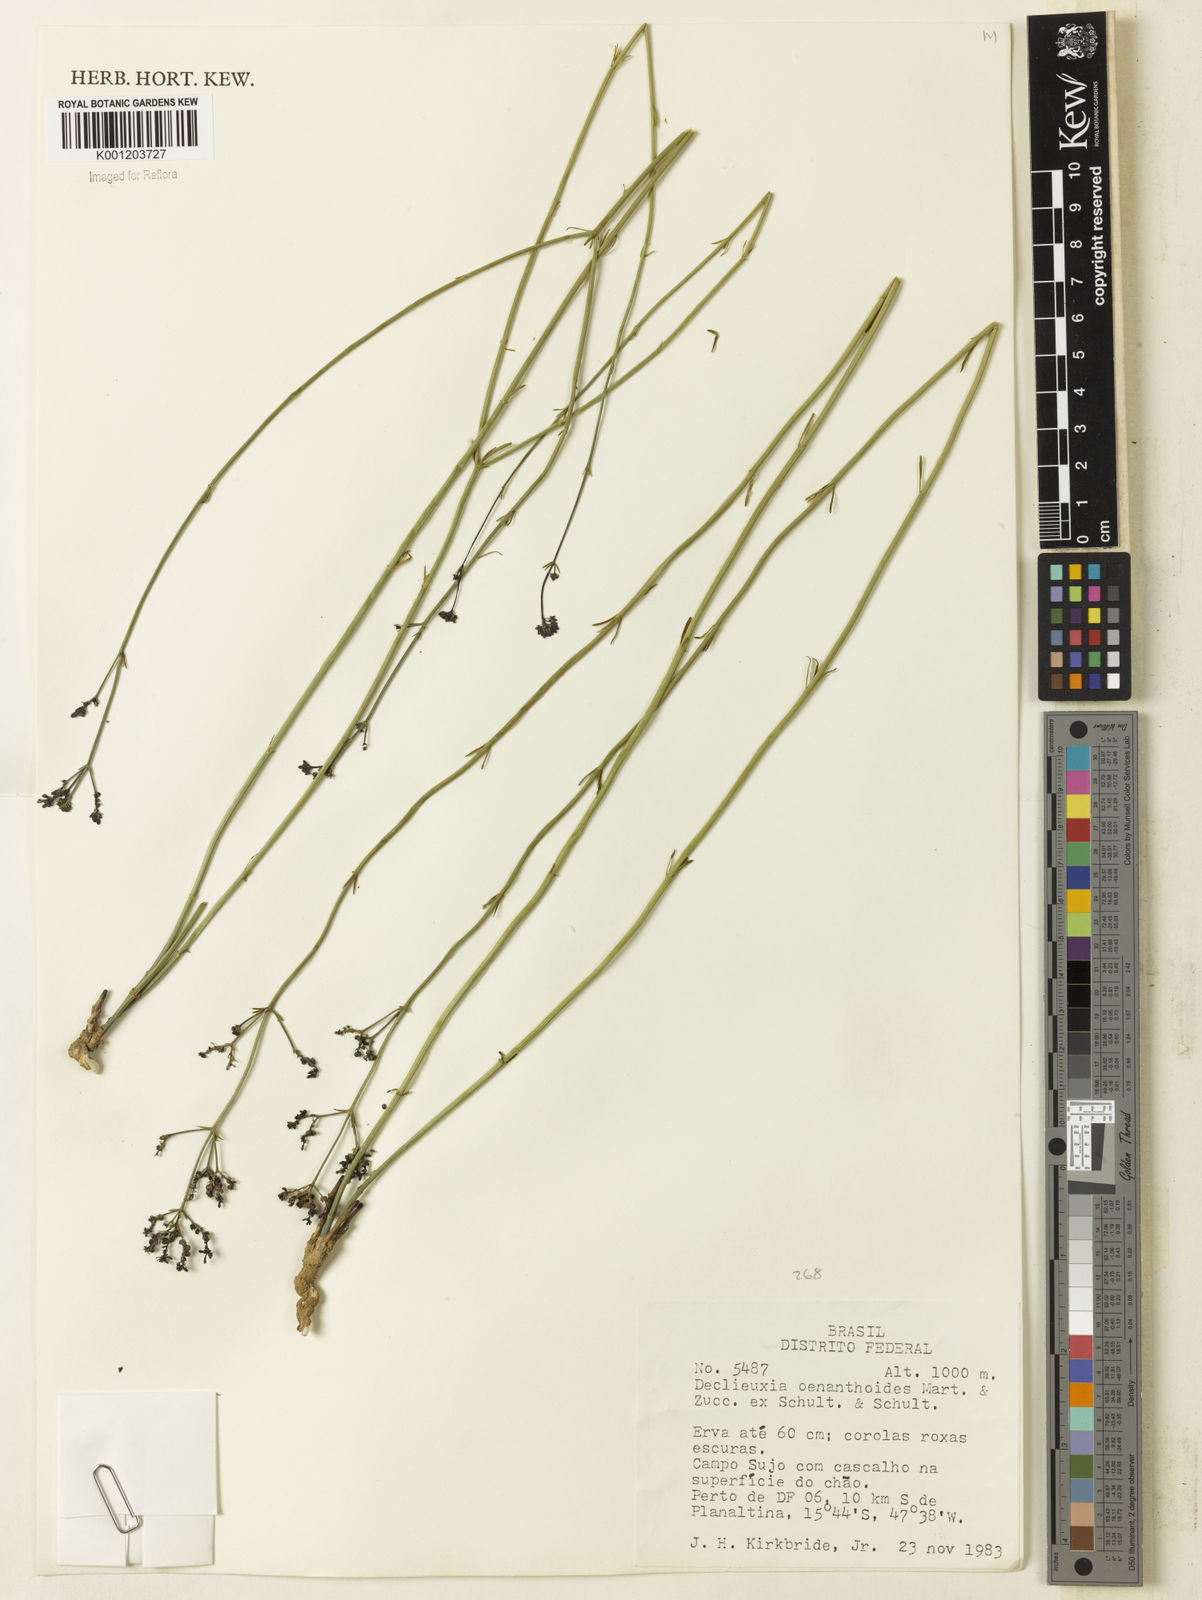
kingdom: Plantae
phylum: Tracheophyta
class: Magnoliopsida
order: Gentianales
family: Rubiaceae
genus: Declieuxia
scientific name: Declieuxia
